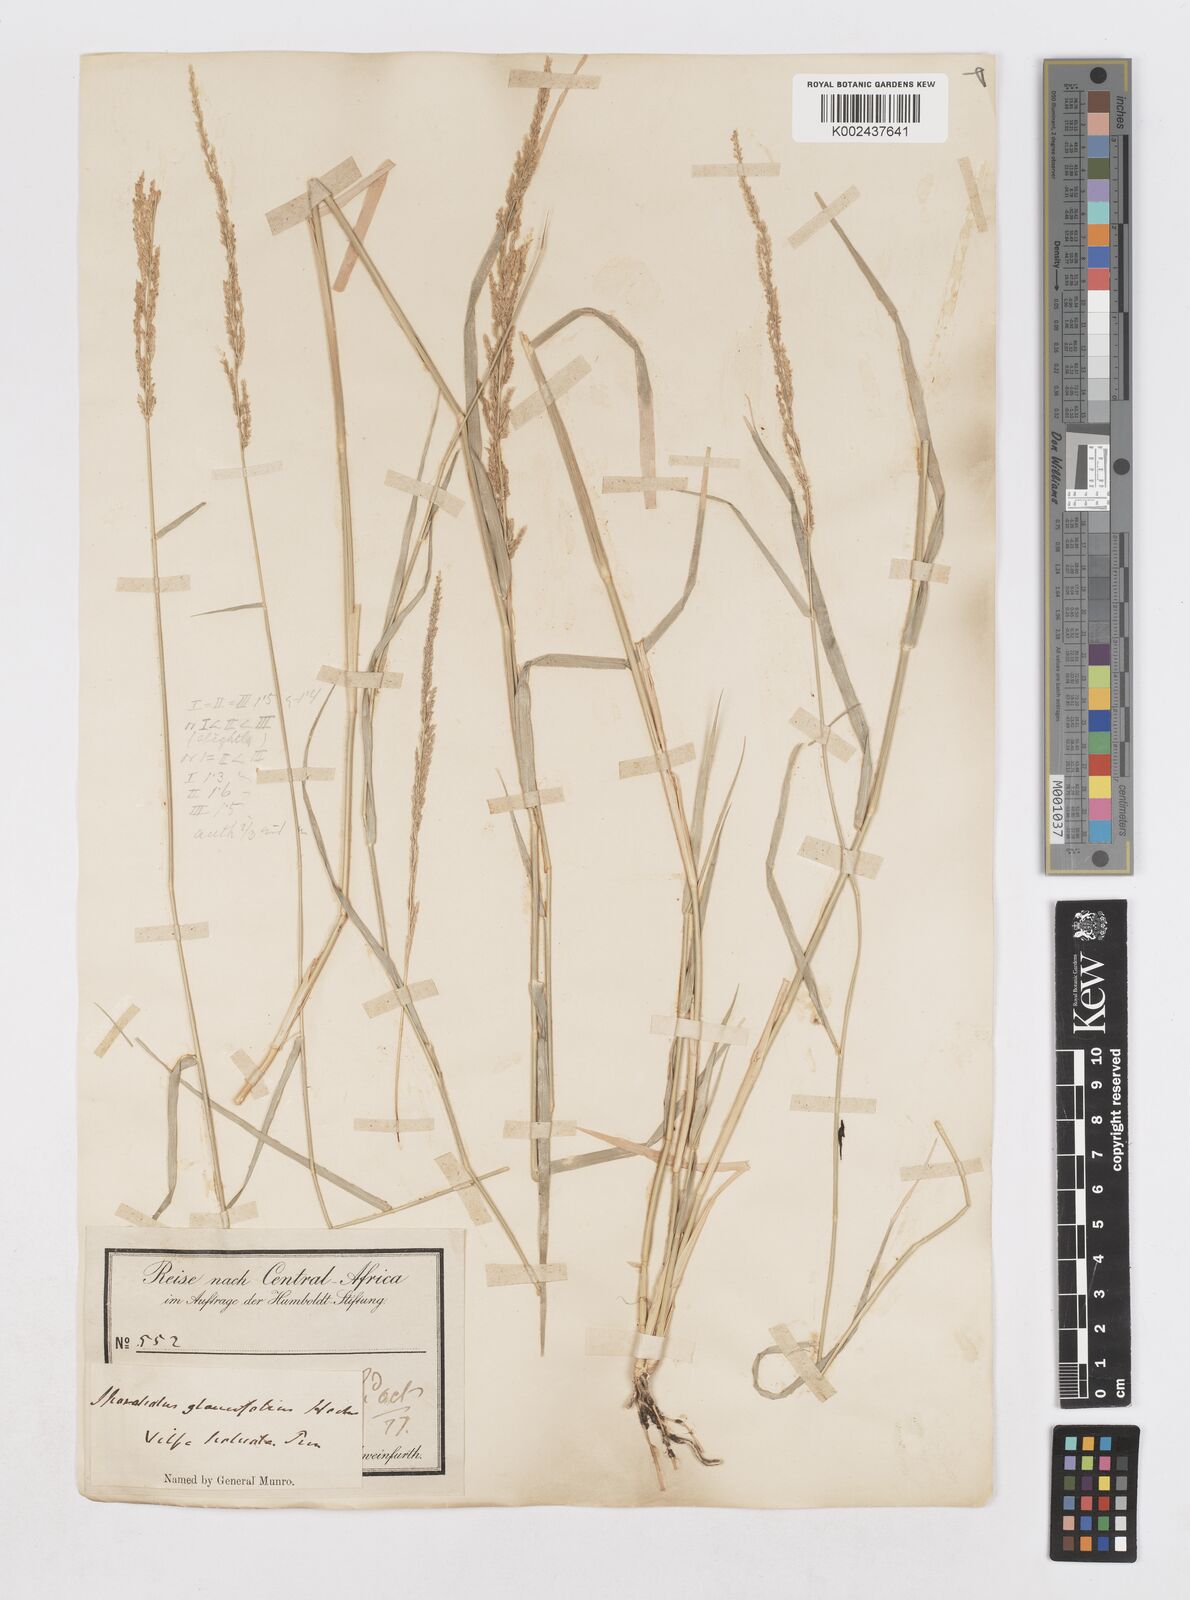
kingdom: Plantae
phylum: Tracheophyta
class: Liliopsida
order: Poales
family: Poaceae
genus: Sporobolus
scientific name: Sporobolus helvolus
